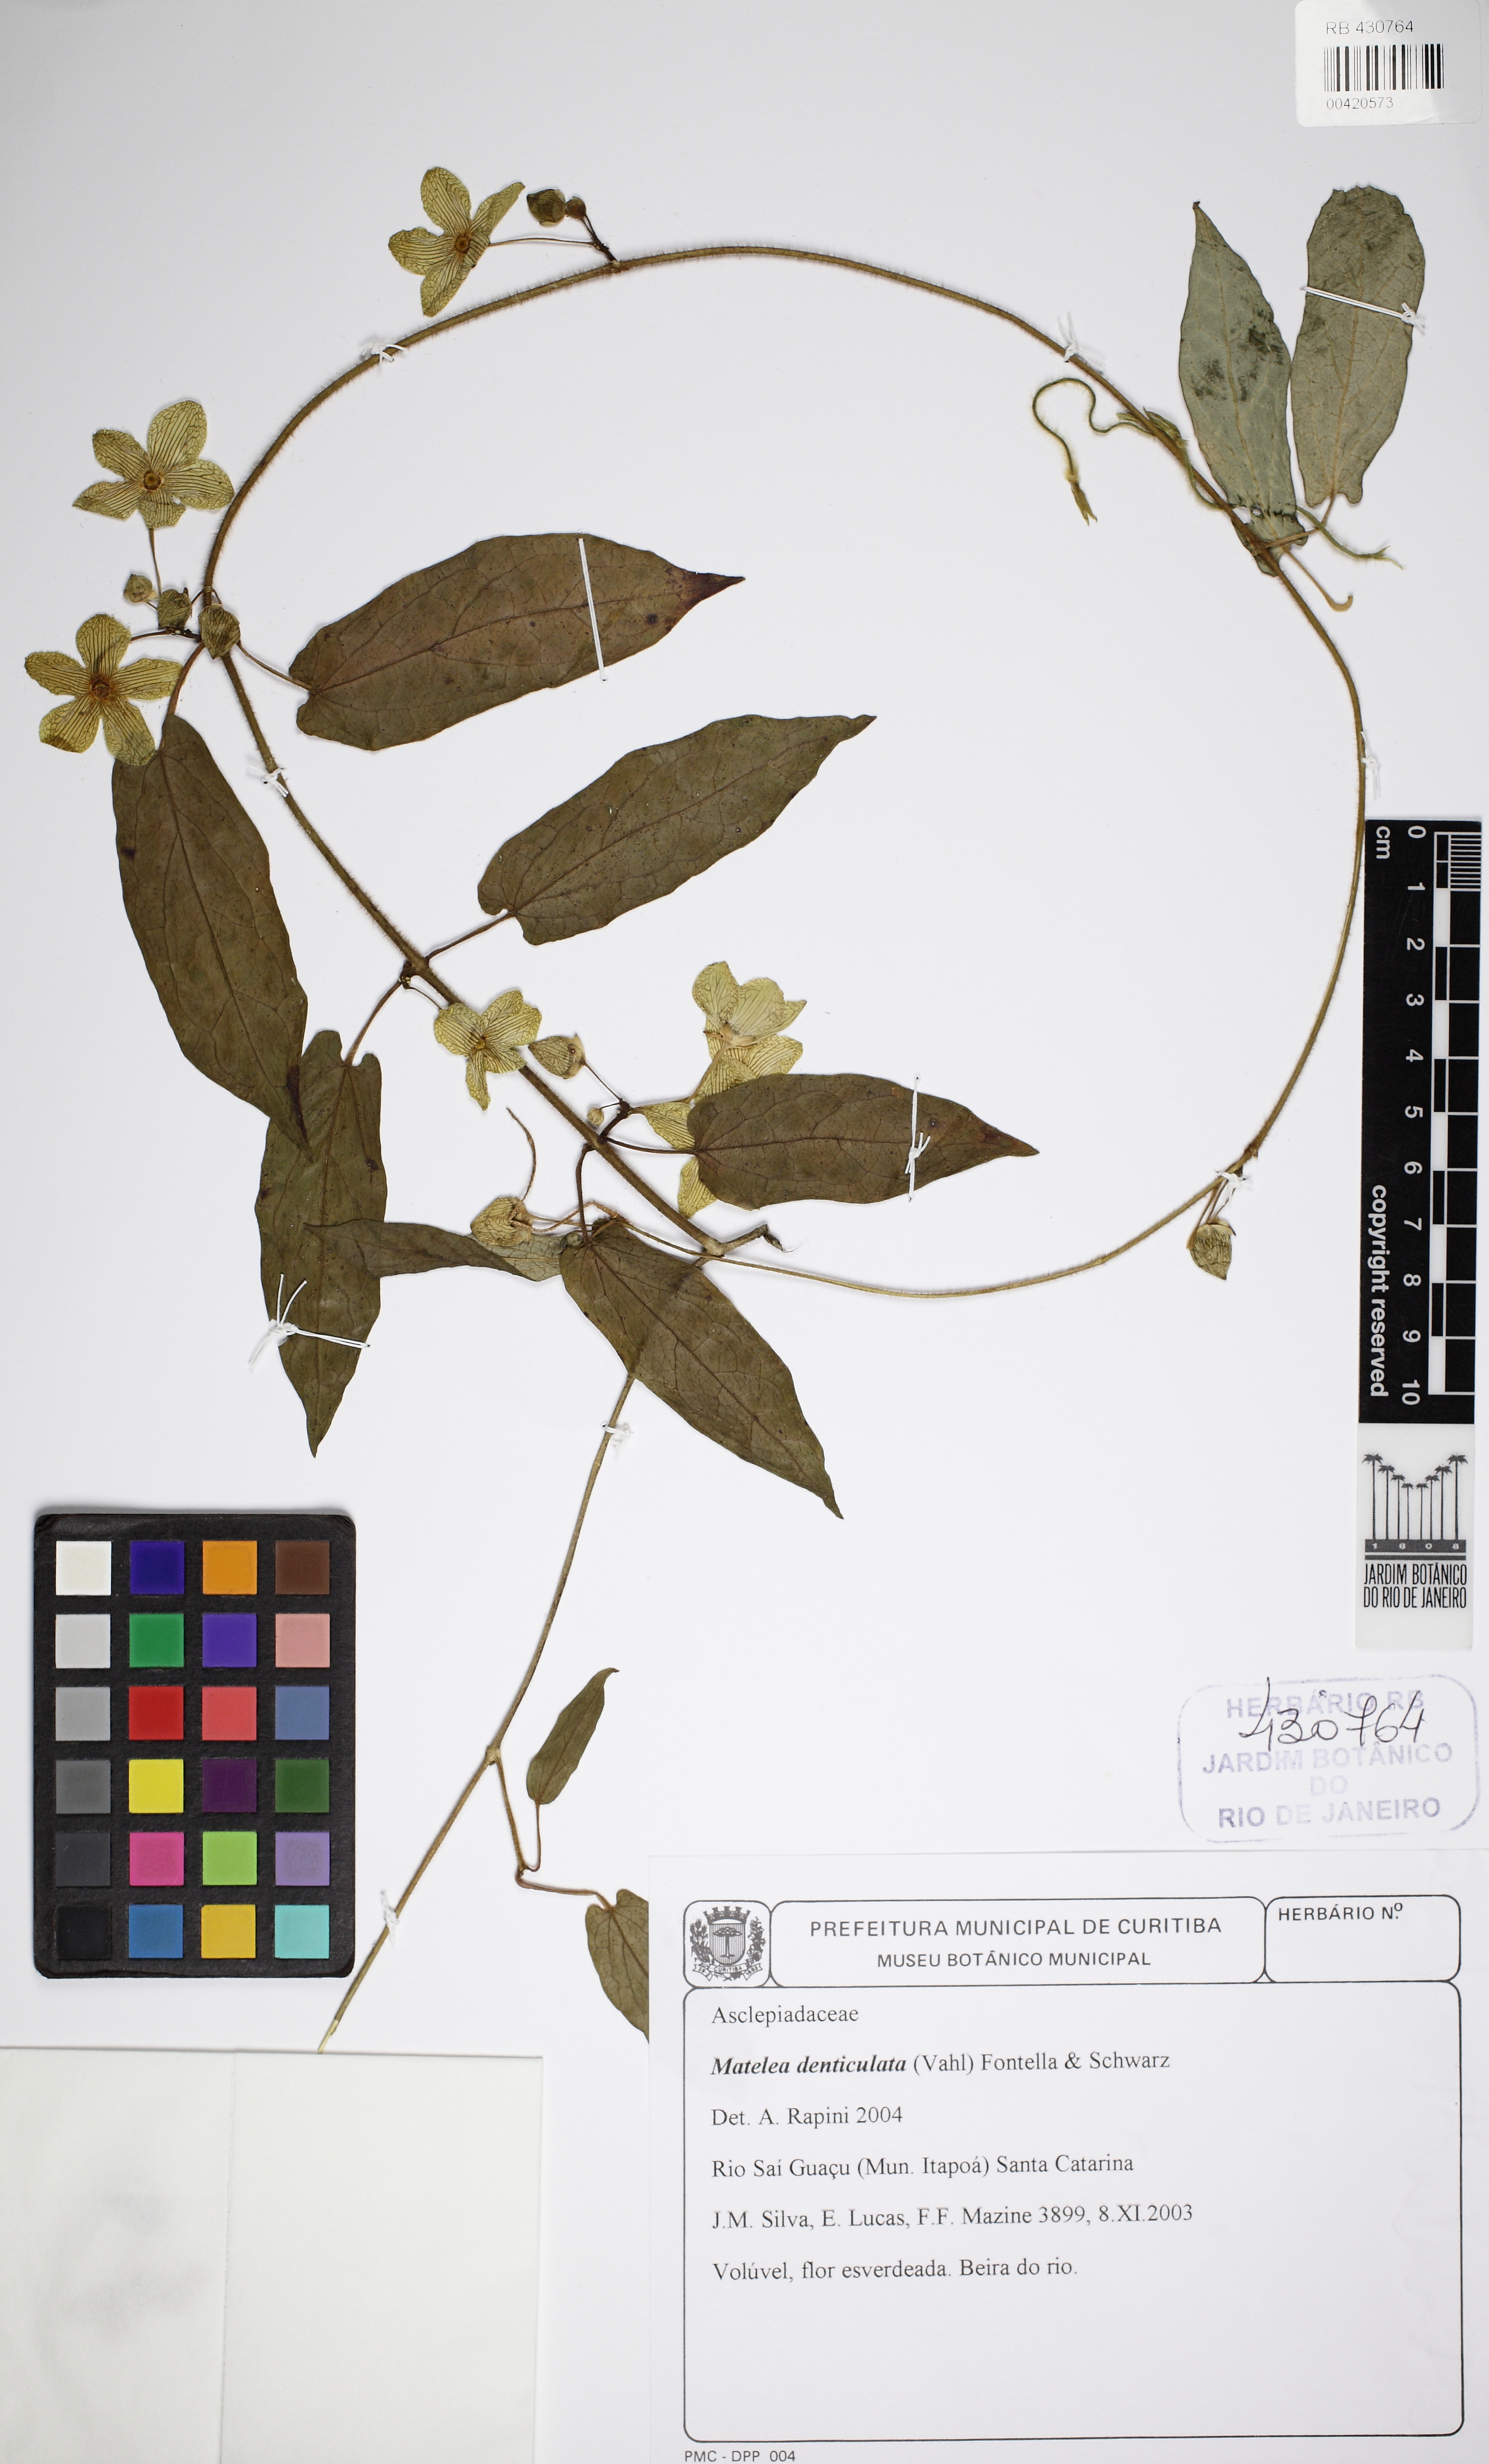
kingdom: Plantae
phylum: Tracheophyta
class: Magnoliopsida
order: Gentianales
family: Apocynaceae
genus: Chloropetalum
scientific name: Chloropetalum denticulatum
